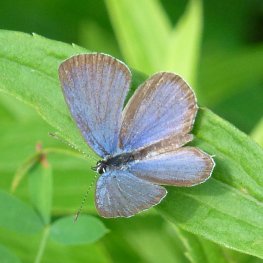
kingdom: Animalia
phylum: Arthropoda
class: Insecta
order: Lepidoptera
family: Lycaenidae
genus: Elkalyce
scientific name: Elkalyce comyntas
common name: Eastern Tailed-Blue
